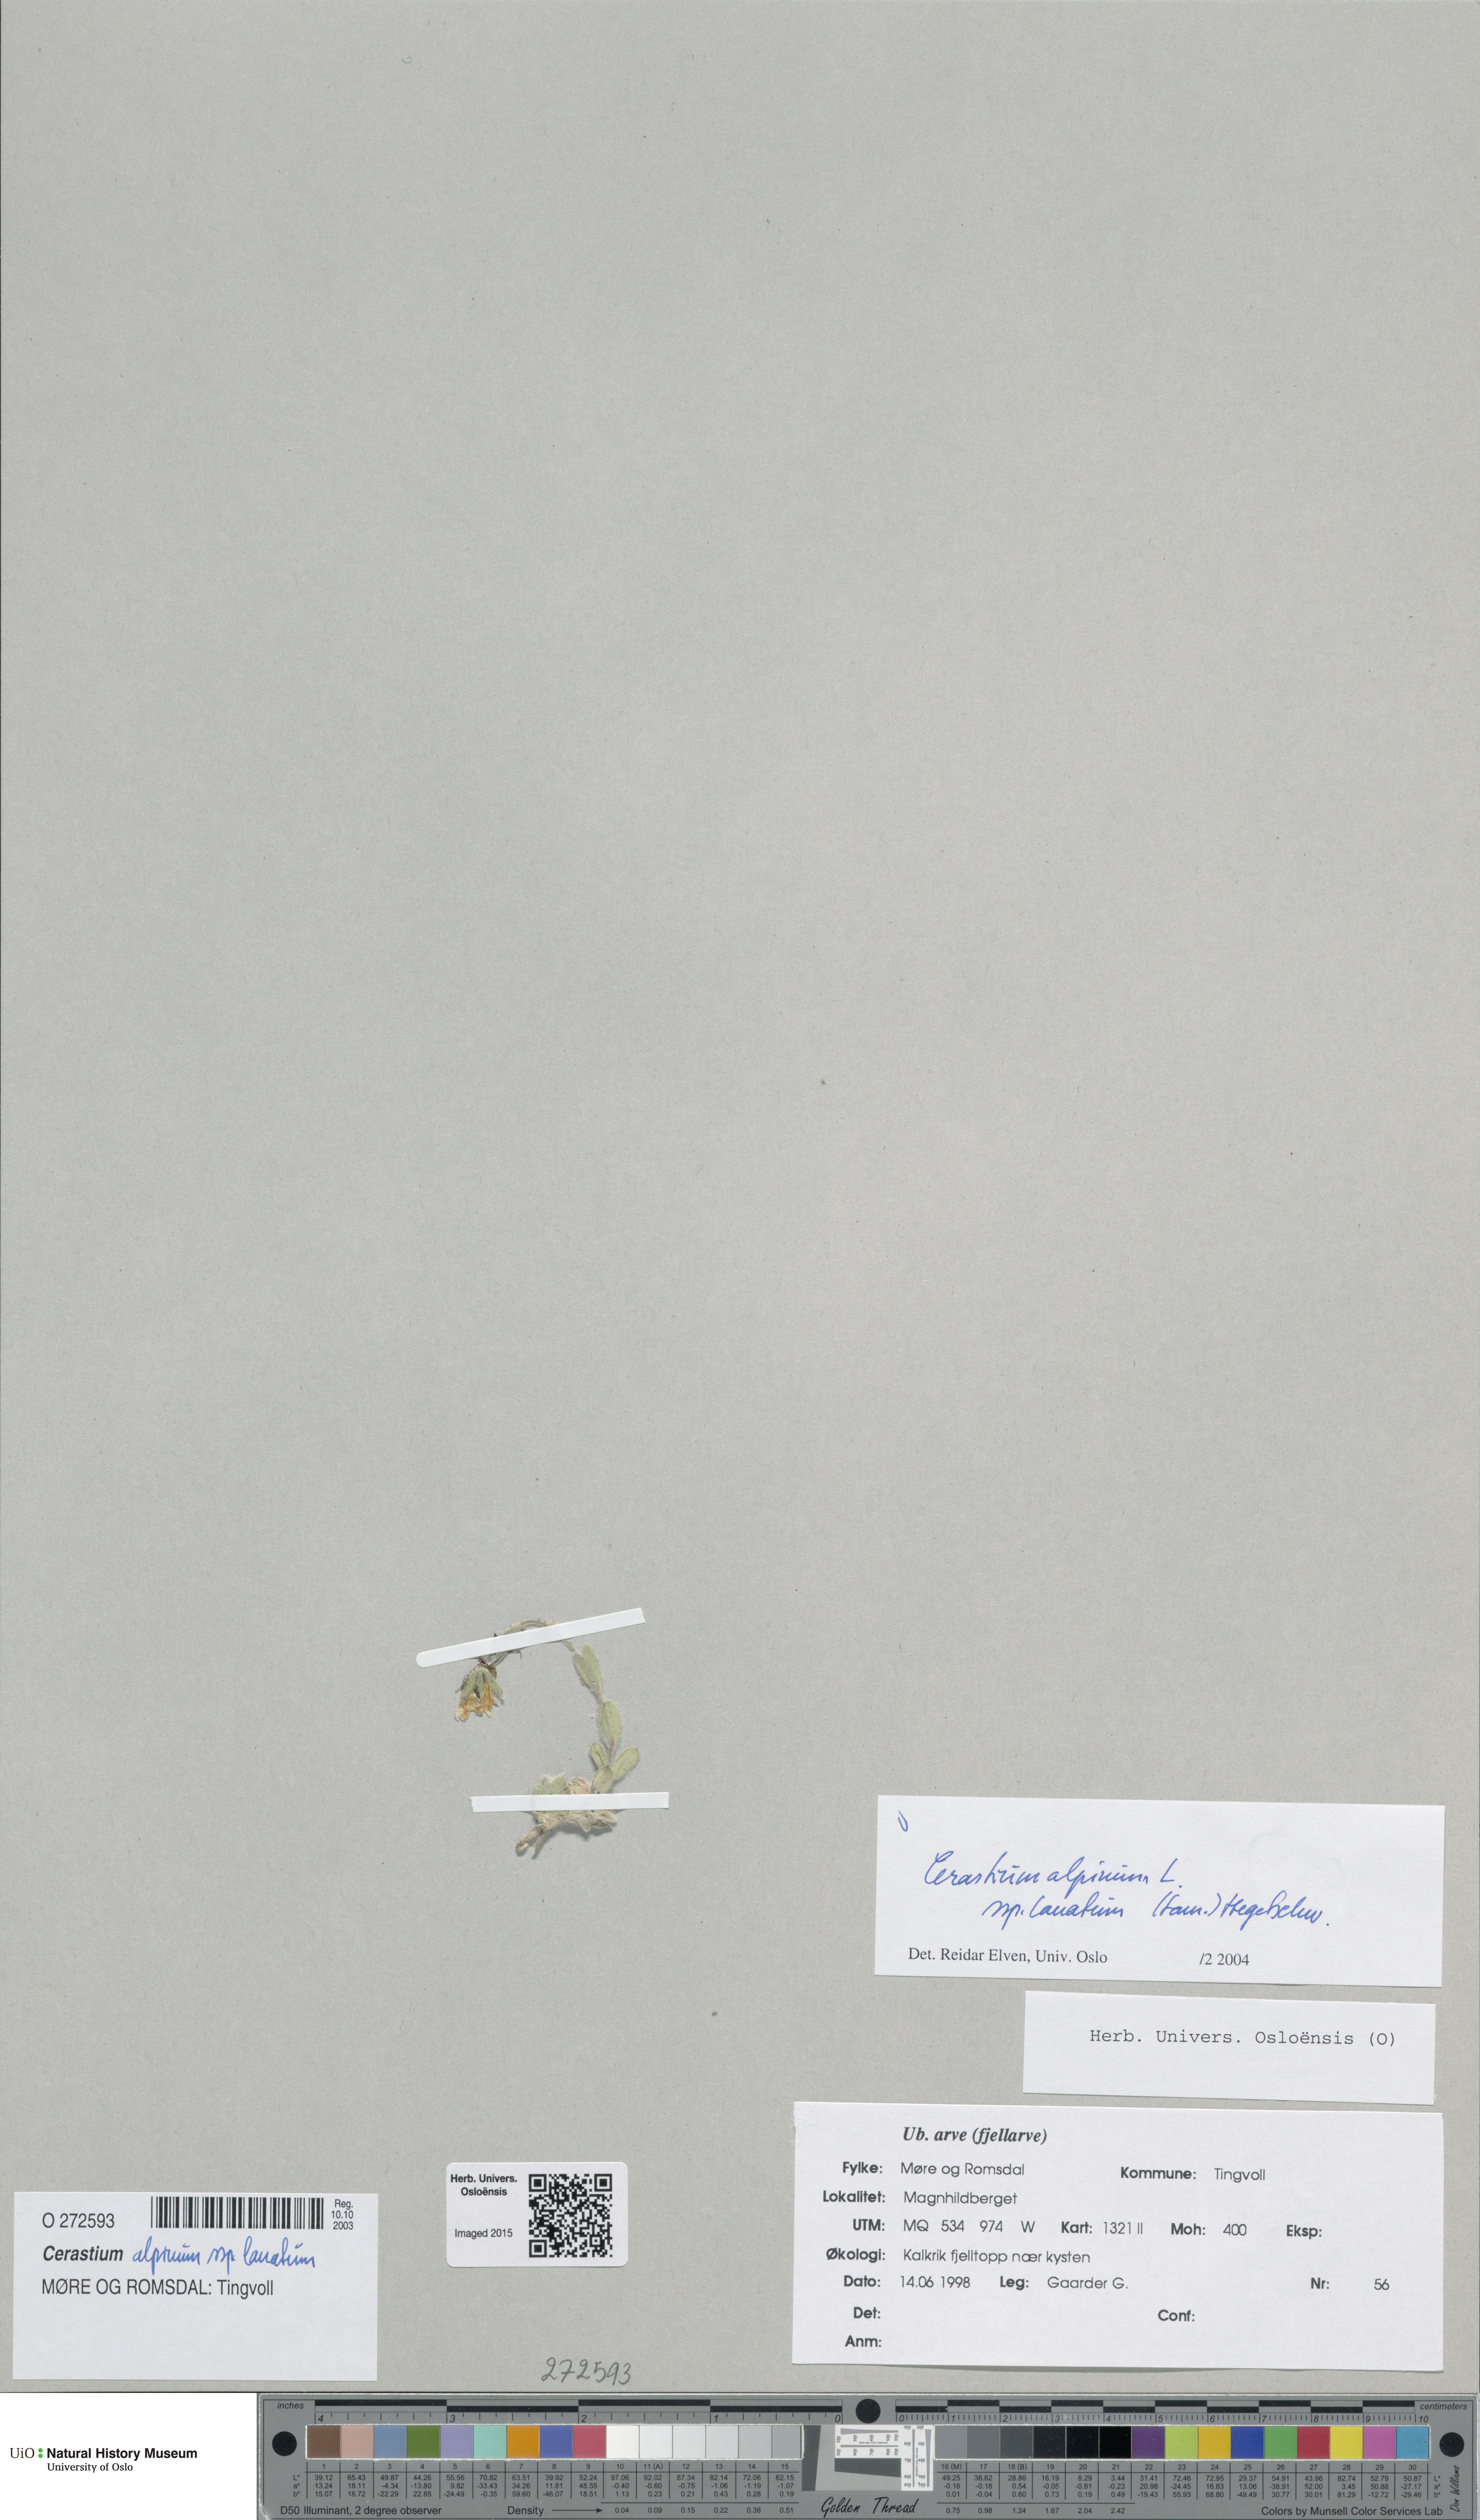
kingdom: Plantae
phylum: Tracheophyta
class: Magnoliopsida
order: Caryophyllales
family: Caryophyllaceae
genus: Cerastium
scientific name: Cerastium alpinum
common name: Alpine mouse-ear
